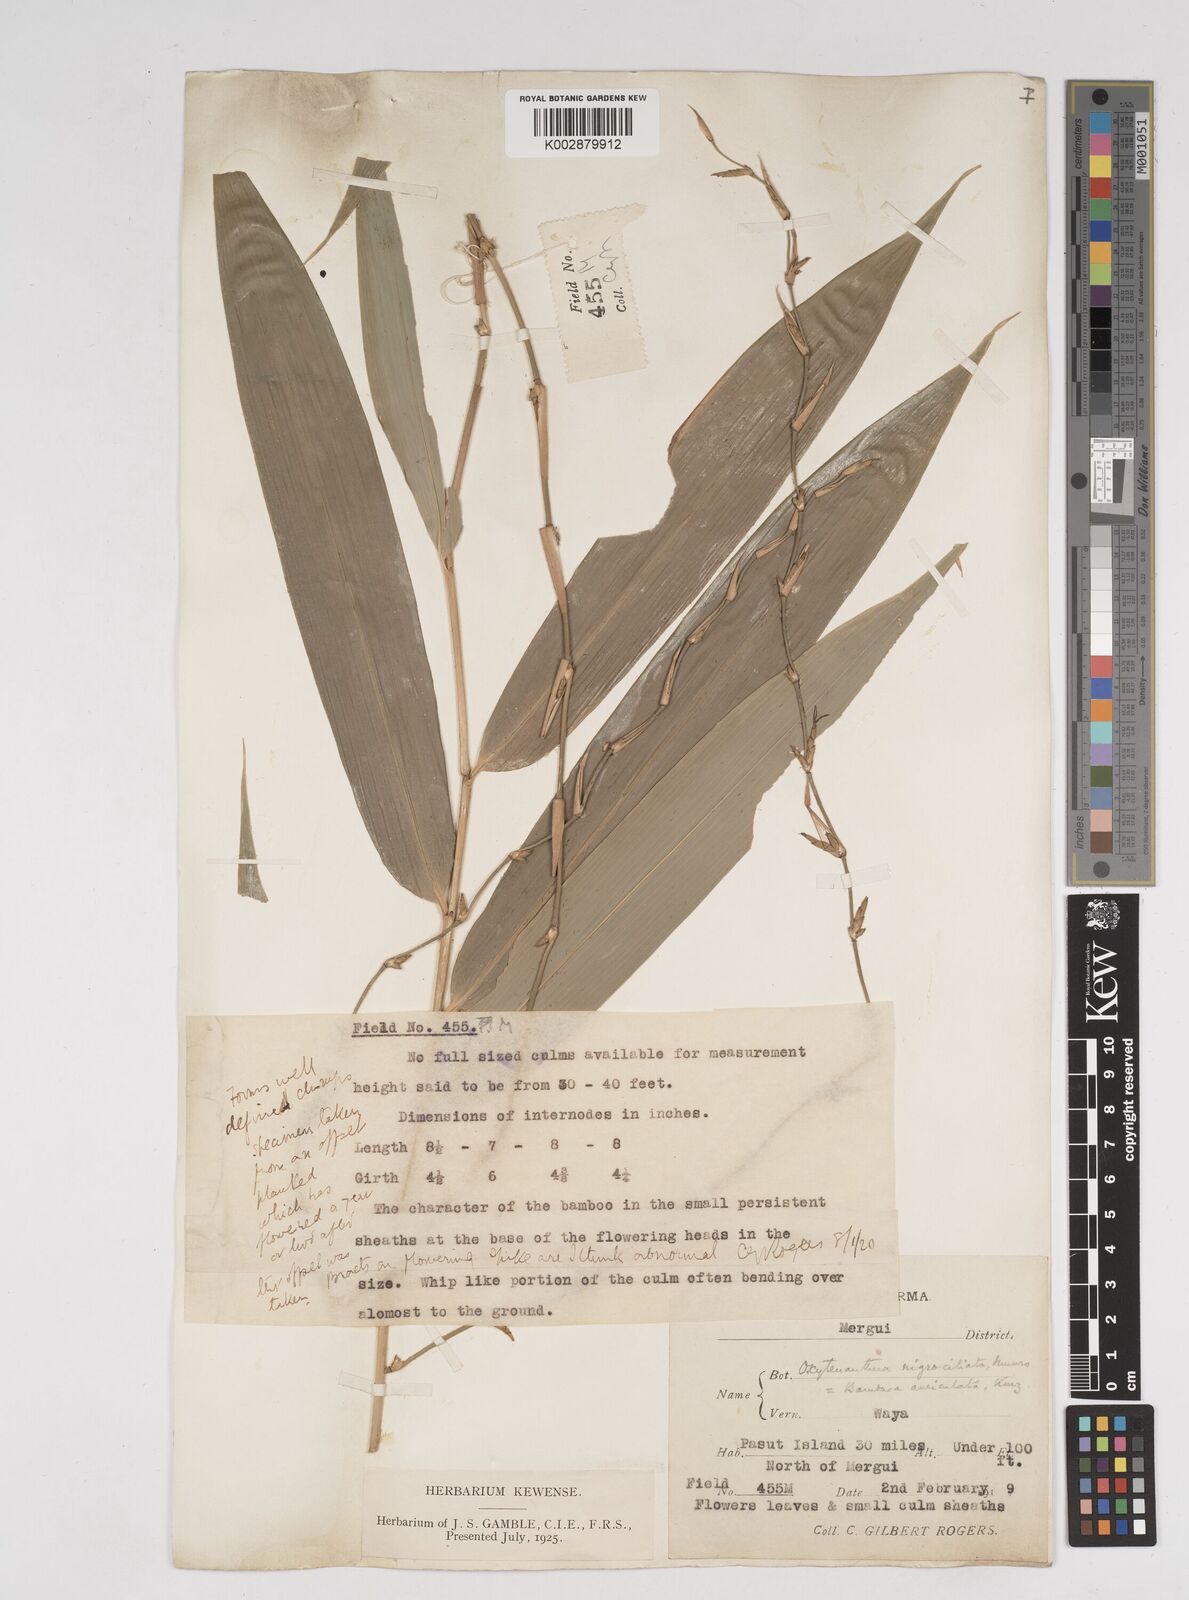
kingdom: Plantae
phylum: Tracheophyta
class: Liliopsida
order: Poales
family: Poaceae
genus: Gigantochloa
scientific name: Gigantochloa nigrociliata
